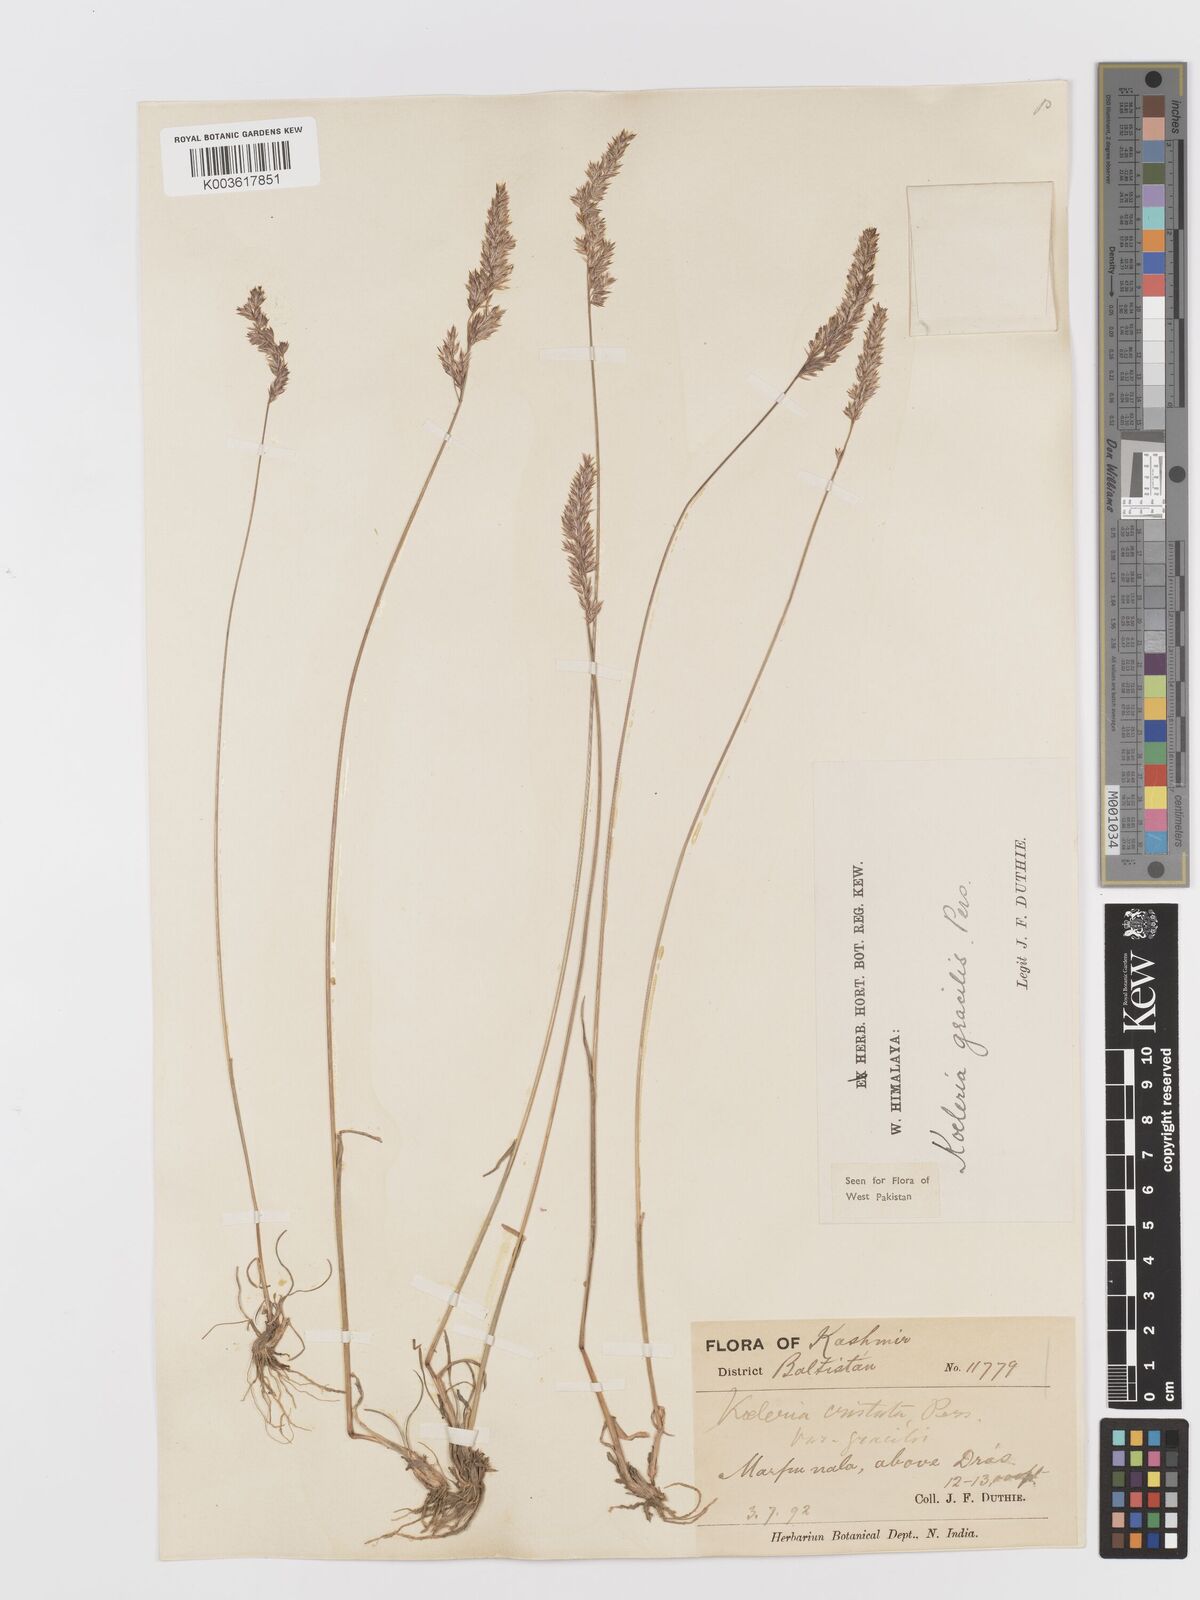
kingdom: Plantae
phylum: Tracheophyta
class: Liliopsida
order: Poales
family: Poaceae
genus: Koeleria
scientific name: Koeleria macrantha
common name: Crested hair-grass
